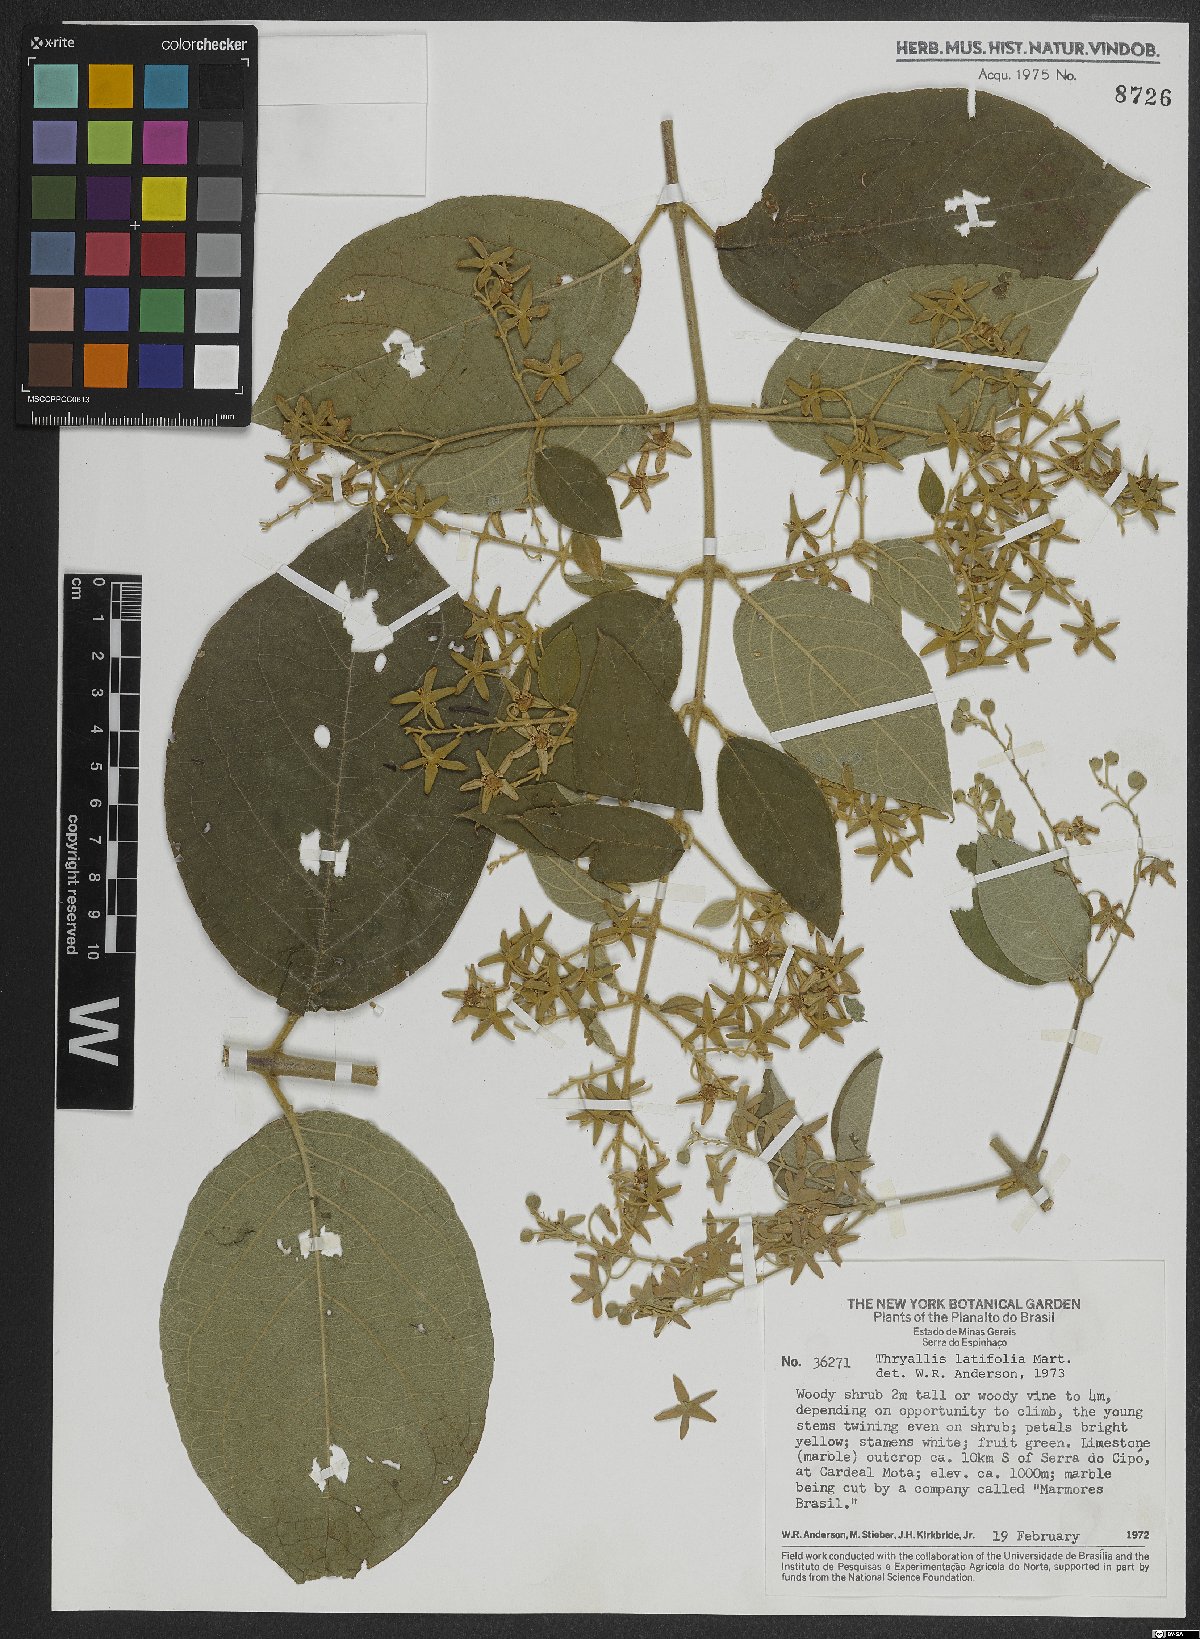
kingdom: Plantae
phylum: Tracheophyta
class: Magnoliopsida
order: Malpighiales
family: Malpighiaceae
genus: Thryallis
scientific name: Thryallis latifolia
